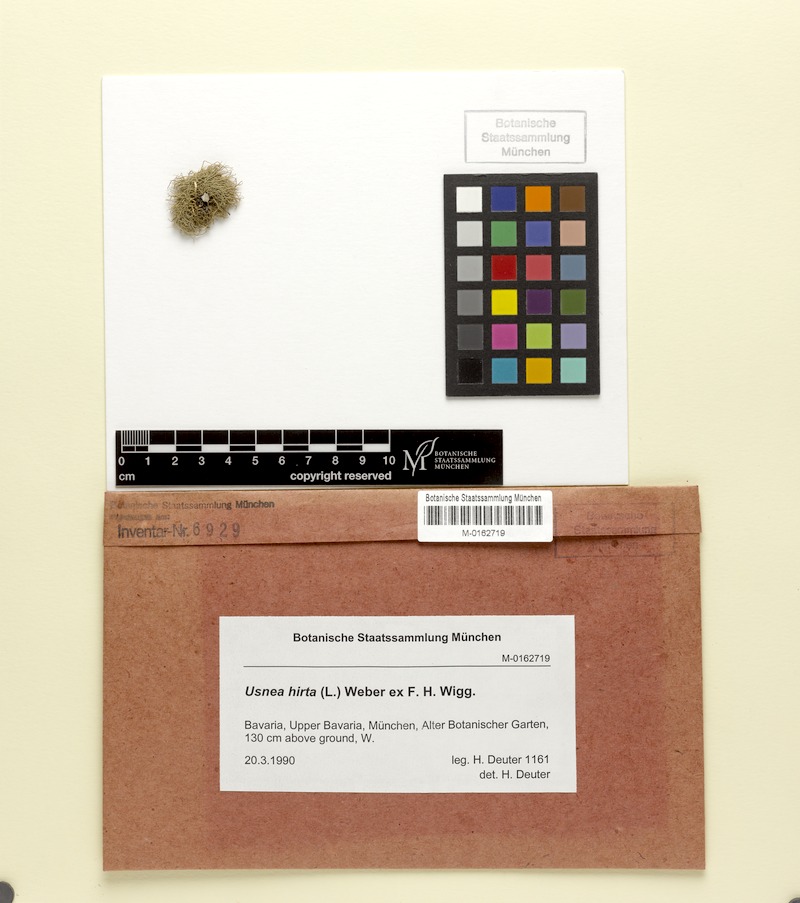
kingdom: Fungi
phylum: Ascomycota
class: Lecanoromycetes
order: Lecanorales
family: Parmeliaceae
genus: Usnea
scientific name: Usnea hirta
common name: Bristly beard lichen
